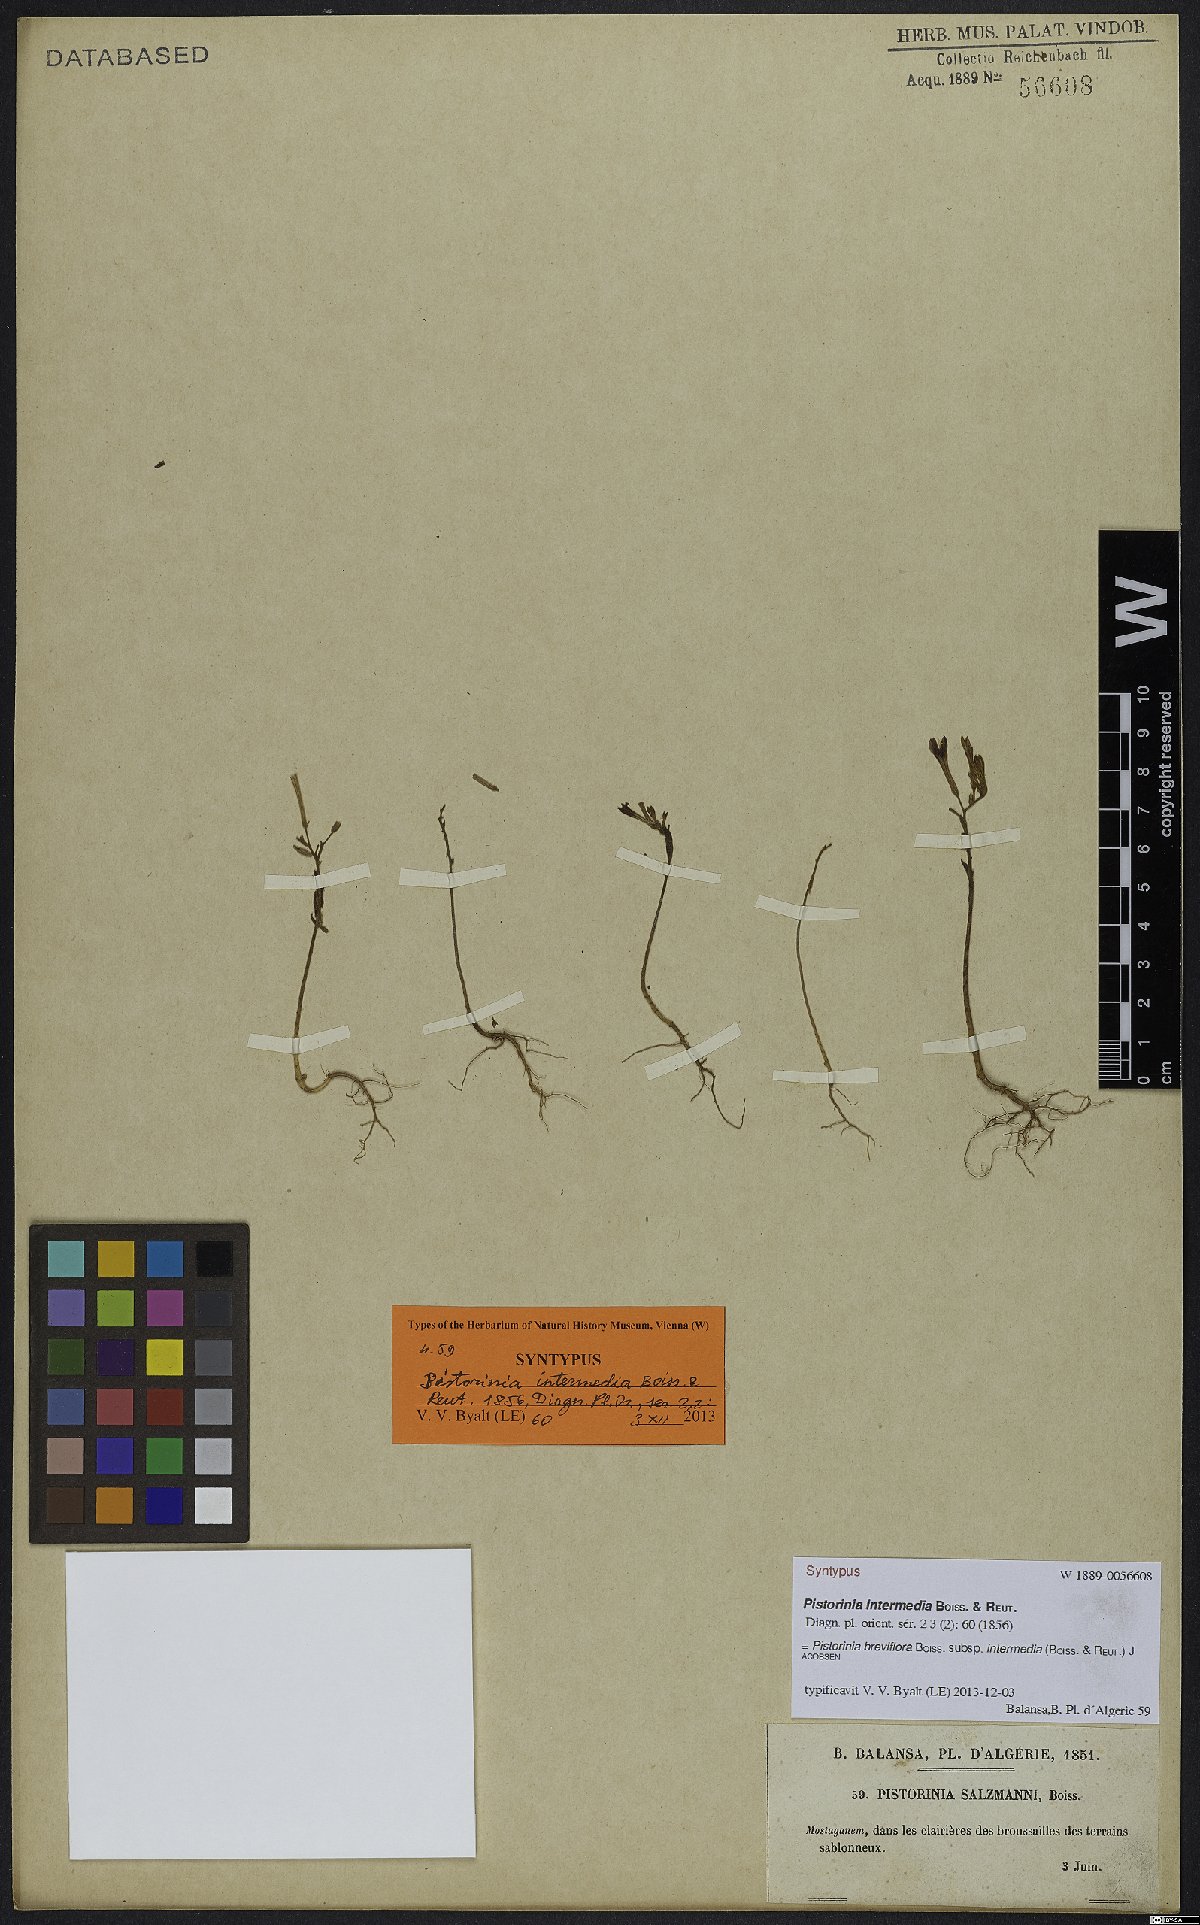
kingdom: Plantae
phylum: Tracheophyta
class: Magnoliopsida
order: Saxifragales
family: Crassulaceae
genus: Pistorinia
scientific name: Pistorinia breviflora
